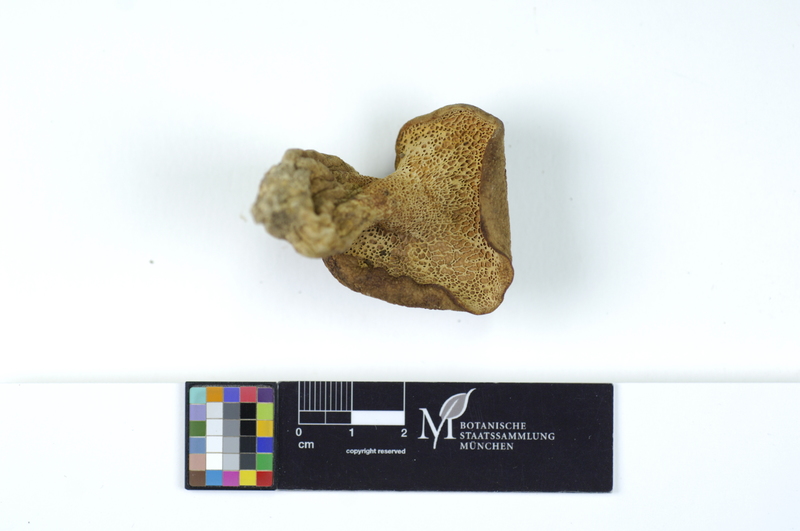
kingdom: Fungi
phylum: Basidiomycota
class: Agaricomycetes
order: Russulales
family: Albatrellaceae
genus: Scutiger
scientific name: Scutiger pes-caprae
